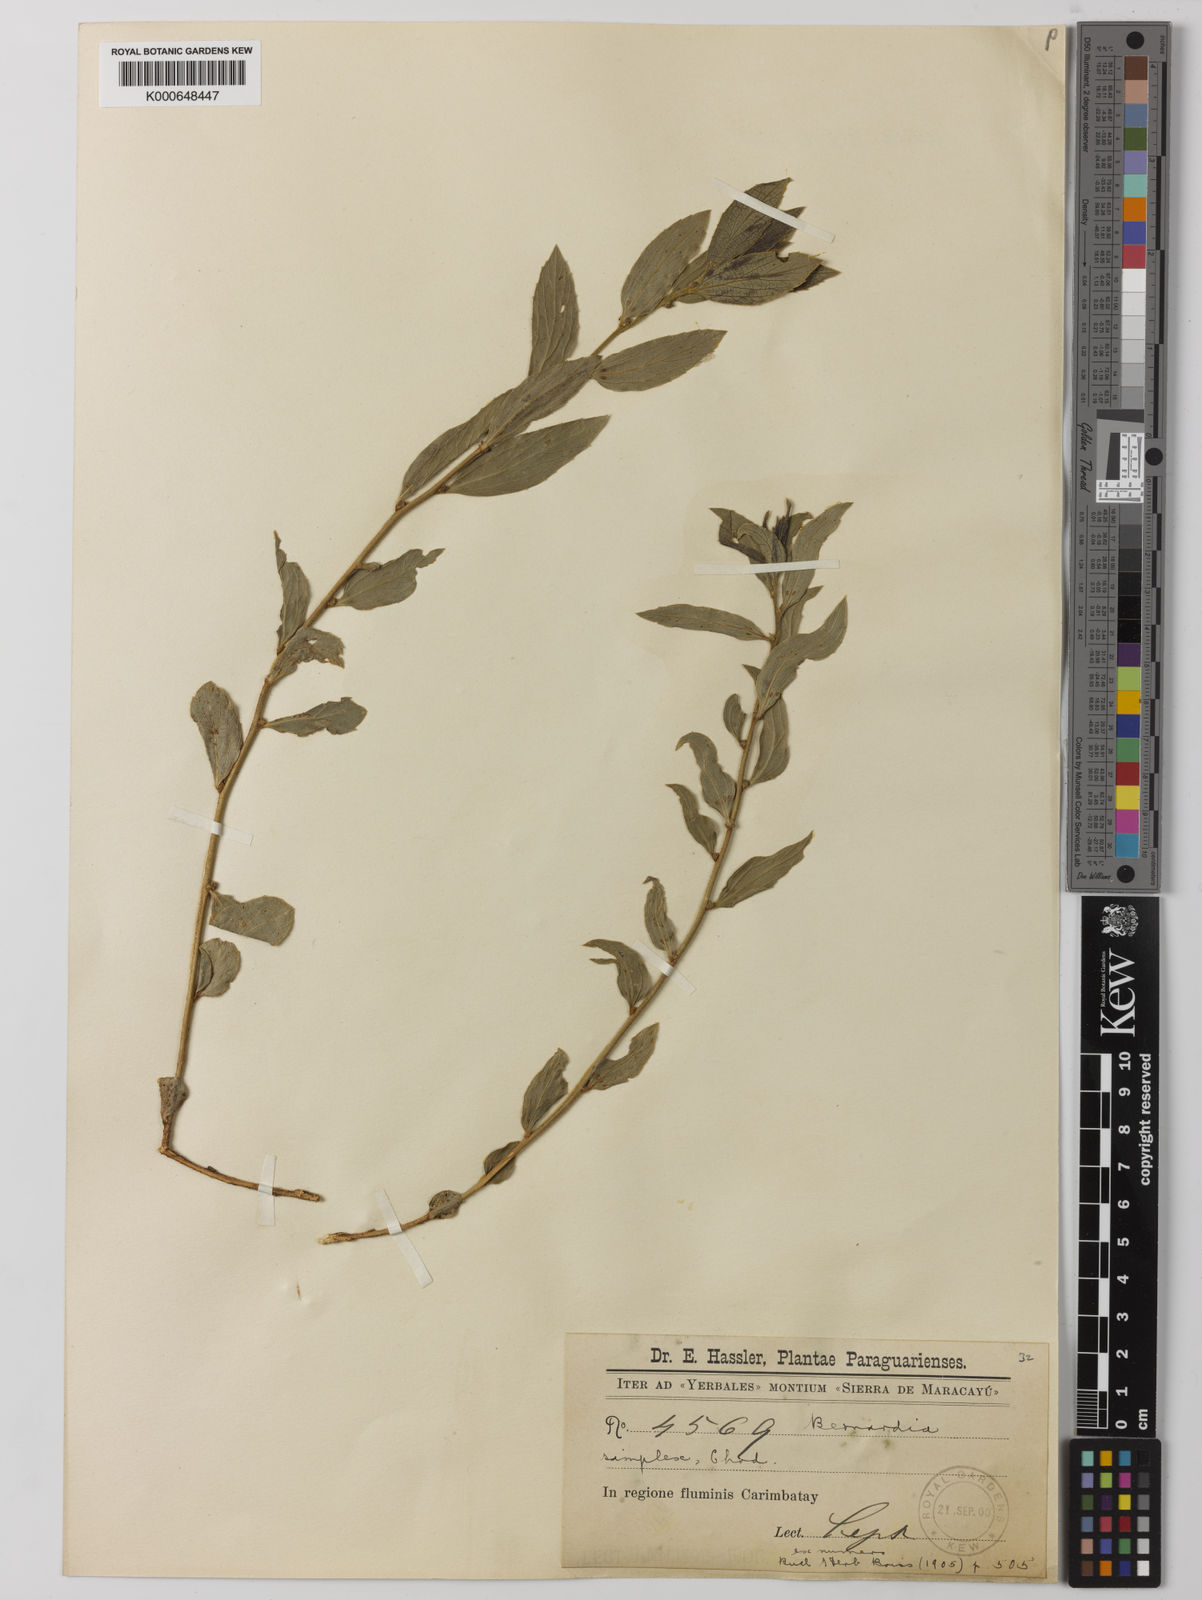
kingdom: Plantae
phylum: Tracheophyta
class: Magnoliopsida
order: Malpighiales
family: Euphorbiaceae
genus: Bernardia
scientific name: Bernardia simplex
